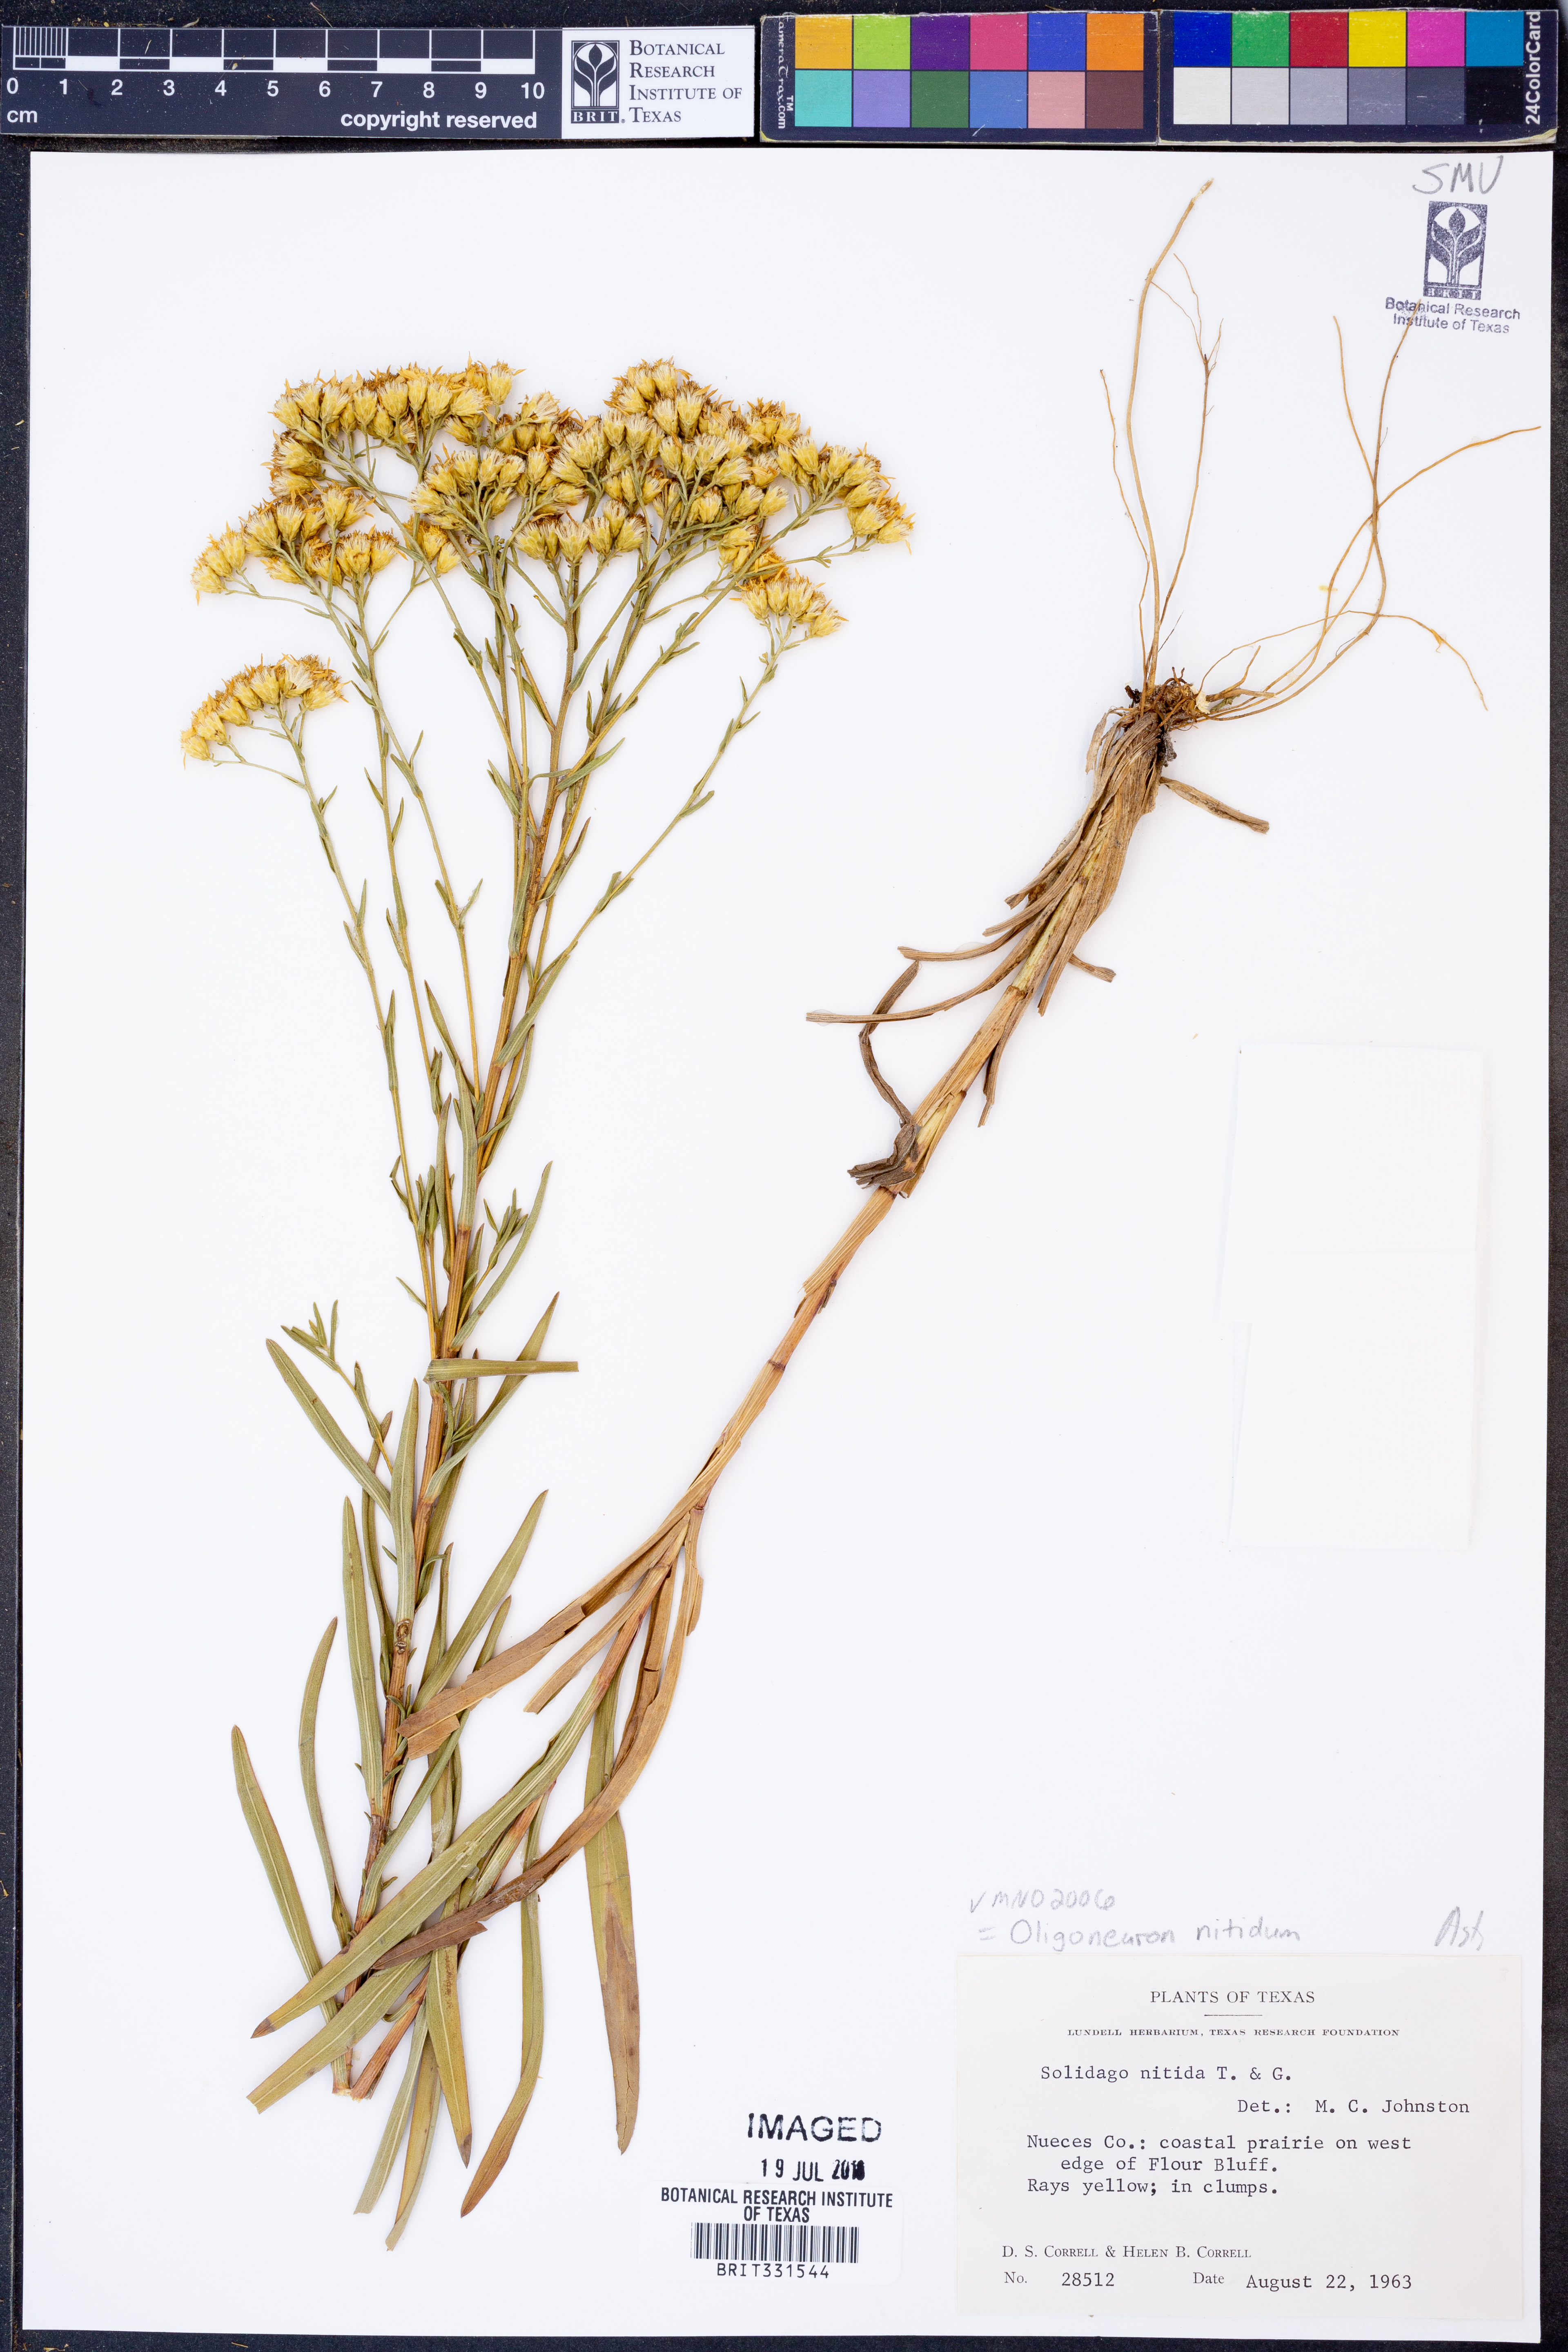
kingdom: Plantae
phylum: Tracheophyta
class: Magnoliopsida
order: Asterales
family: Asteraceae
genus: Solidago
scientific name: Solidago nitida
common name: Shiny goldenrod
